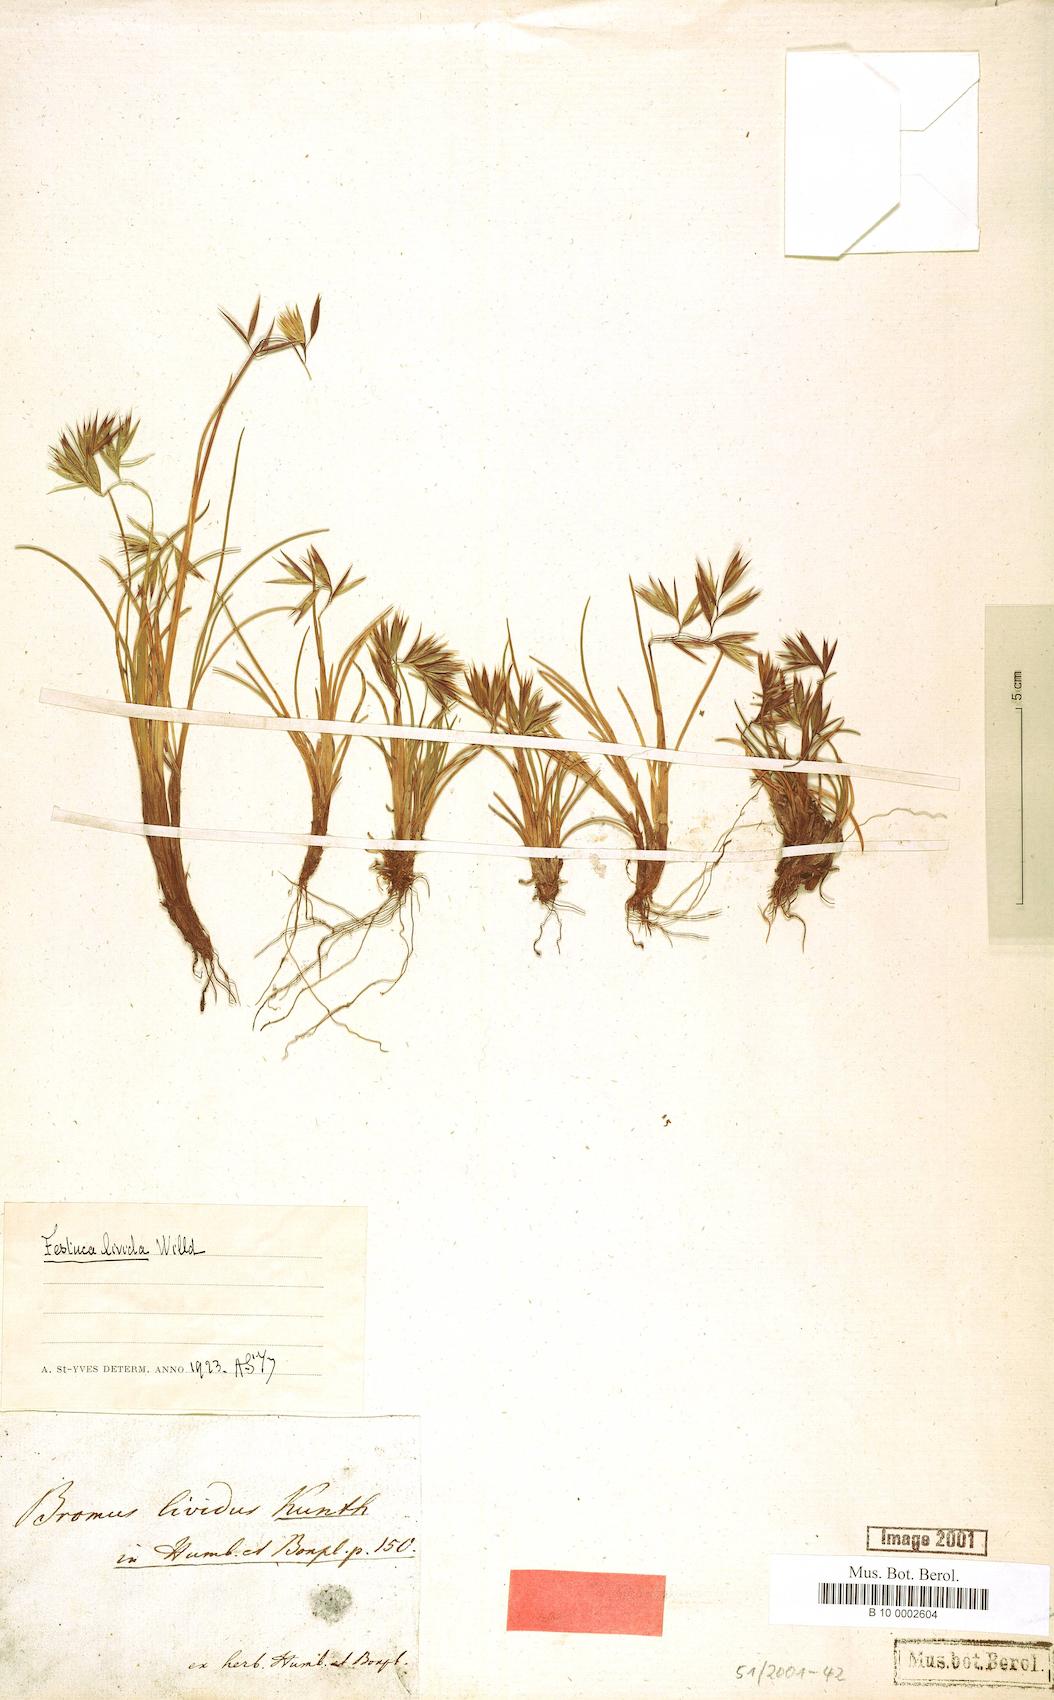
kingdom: Plantae
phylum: Tracheophyta
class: Liliopsida
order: Poales
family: Poaceae
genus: Festuca
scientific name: Festuca livida
